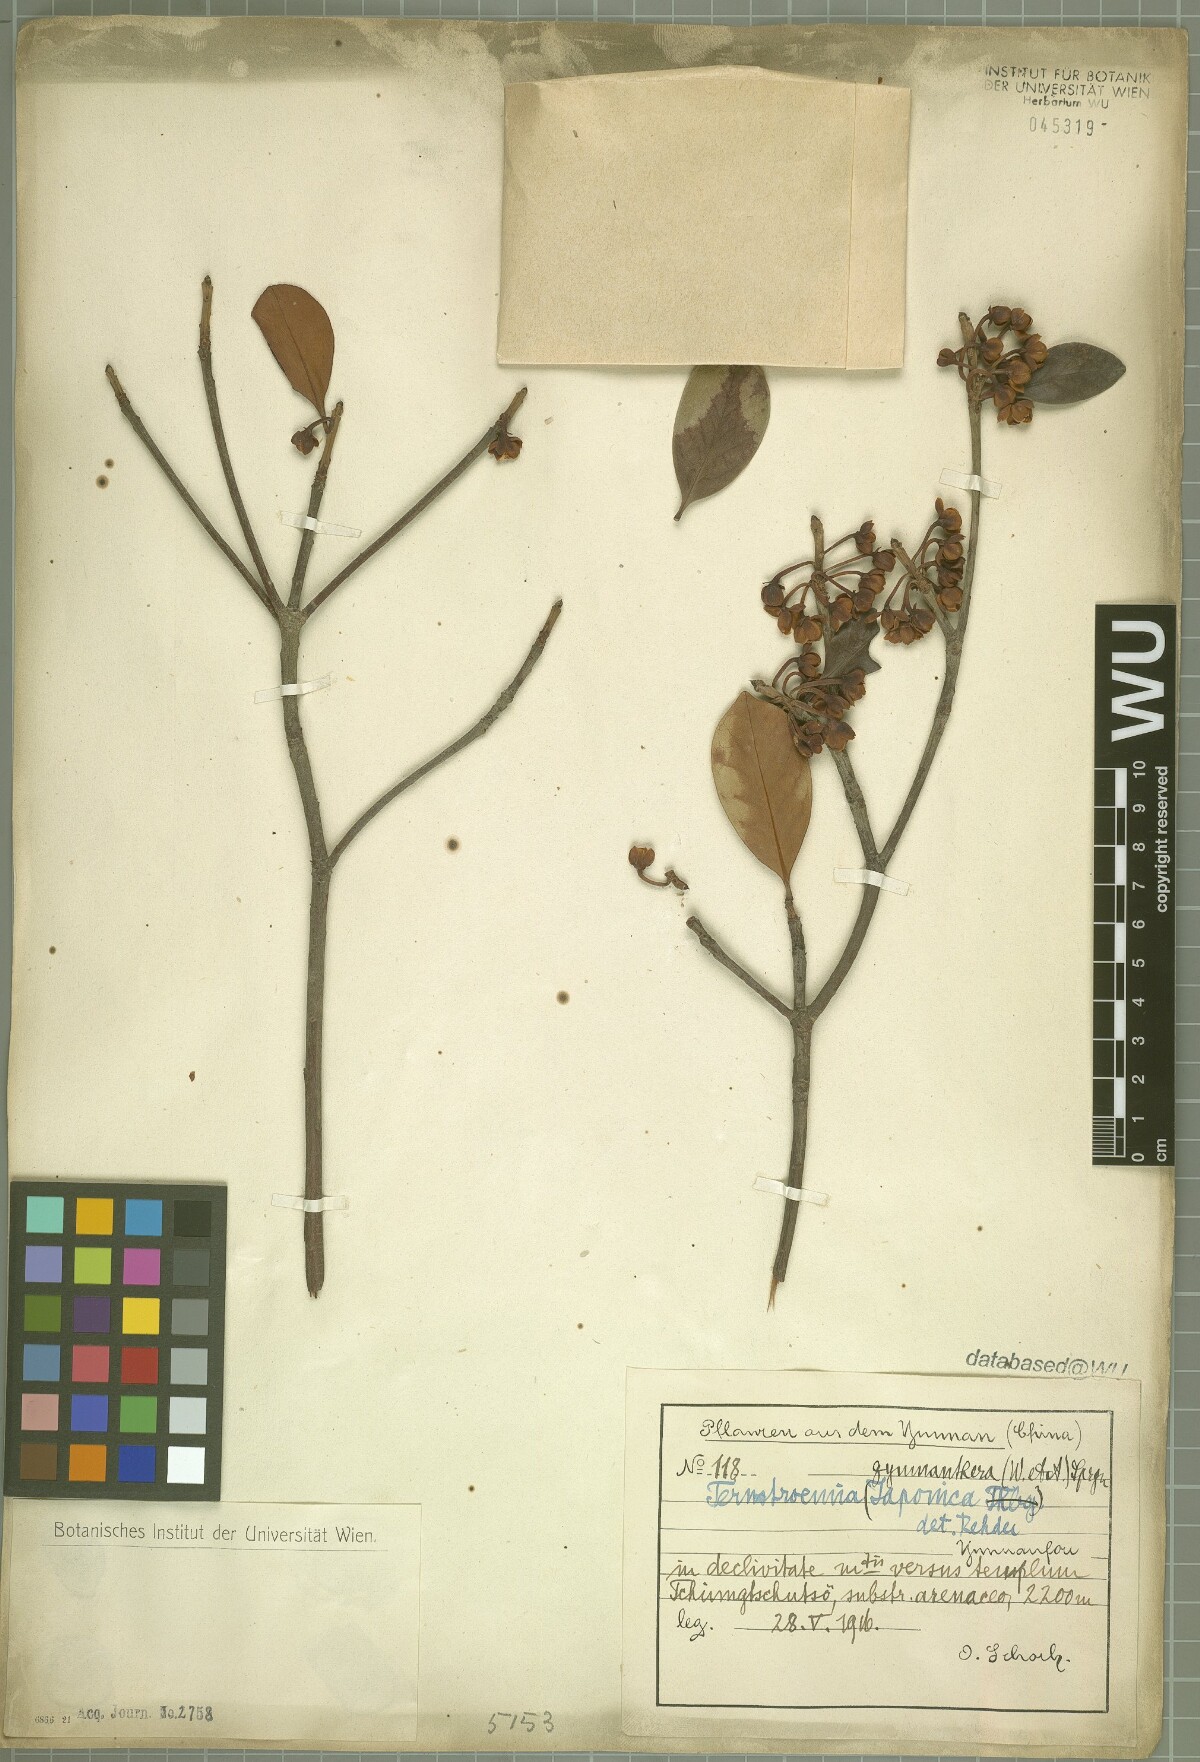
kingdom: Plantae
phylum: Tracheophyta
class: Magnoliopsida
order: Ericales
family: Pentaphylacaceae
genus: Ternstroemia
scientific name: Ternstroemia gymnanthera
